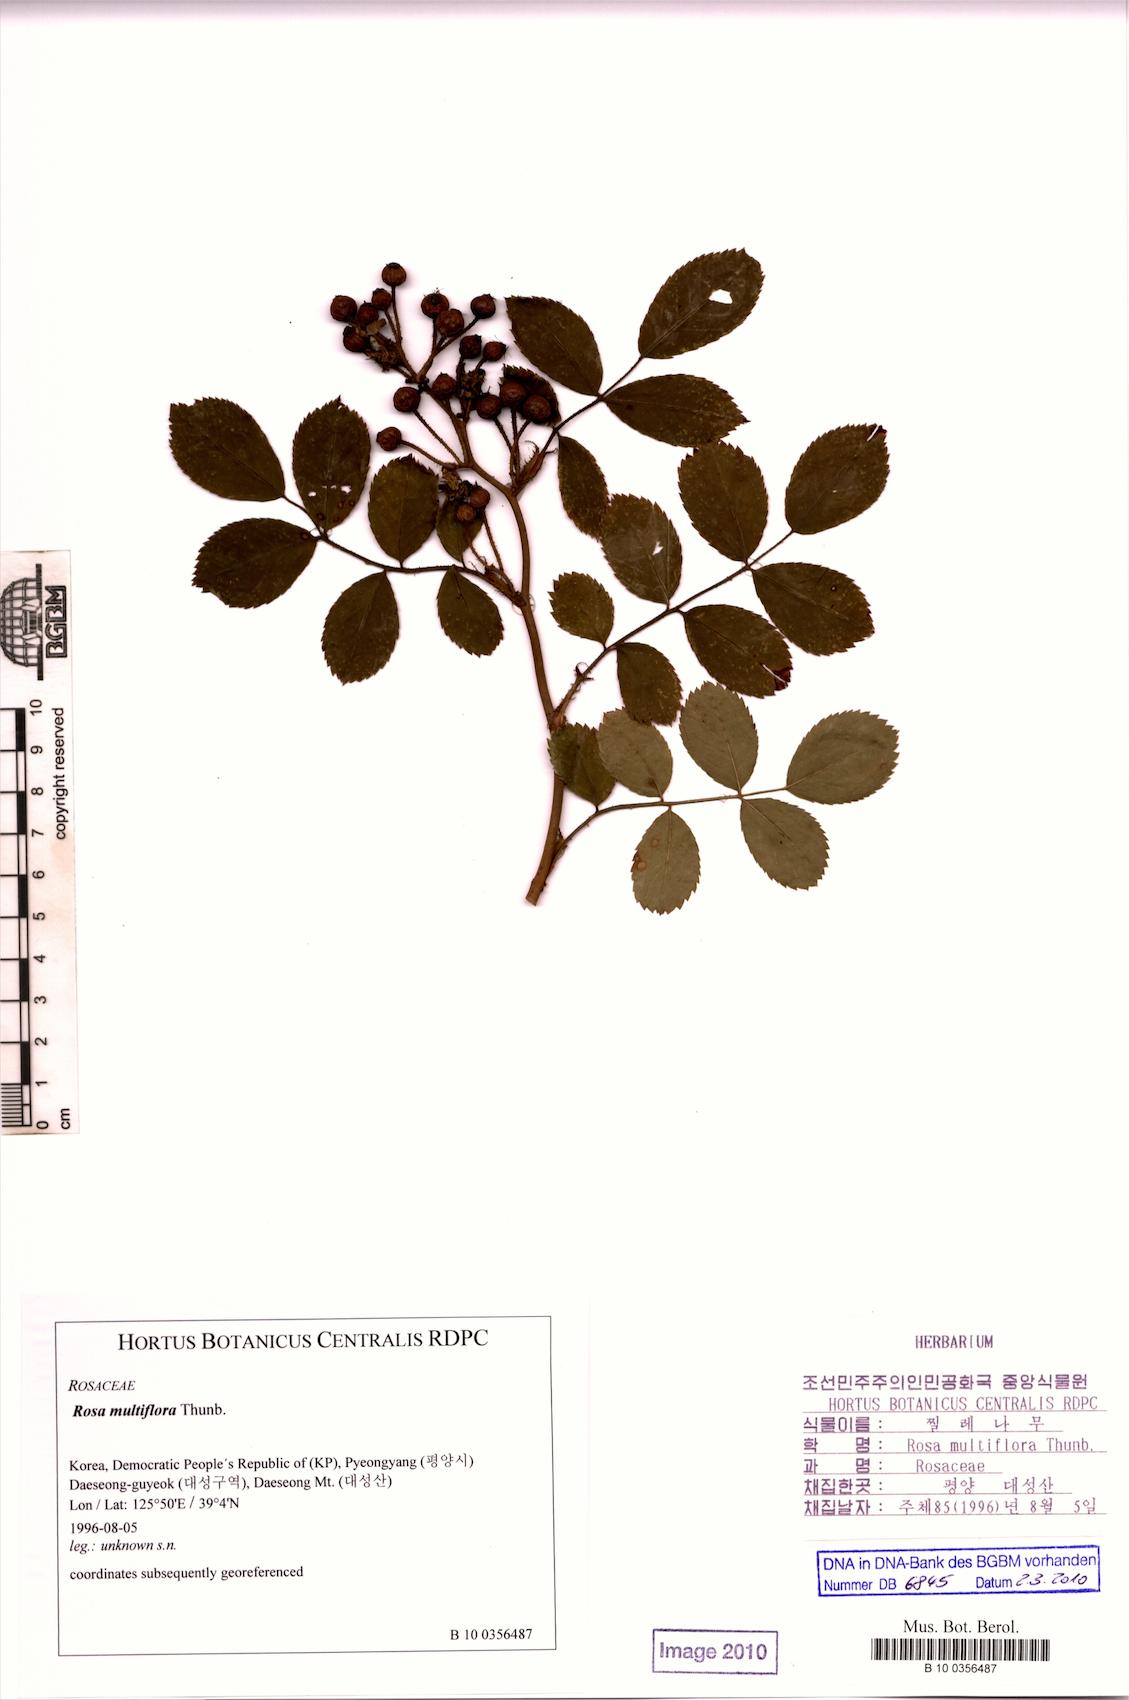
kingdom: Plantae
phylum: Tracheophyta
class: Magnoliopsida
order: Rosales
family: Rosaceae
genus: Rosa
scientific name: Rosa multiflora
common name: Multiflora rose
